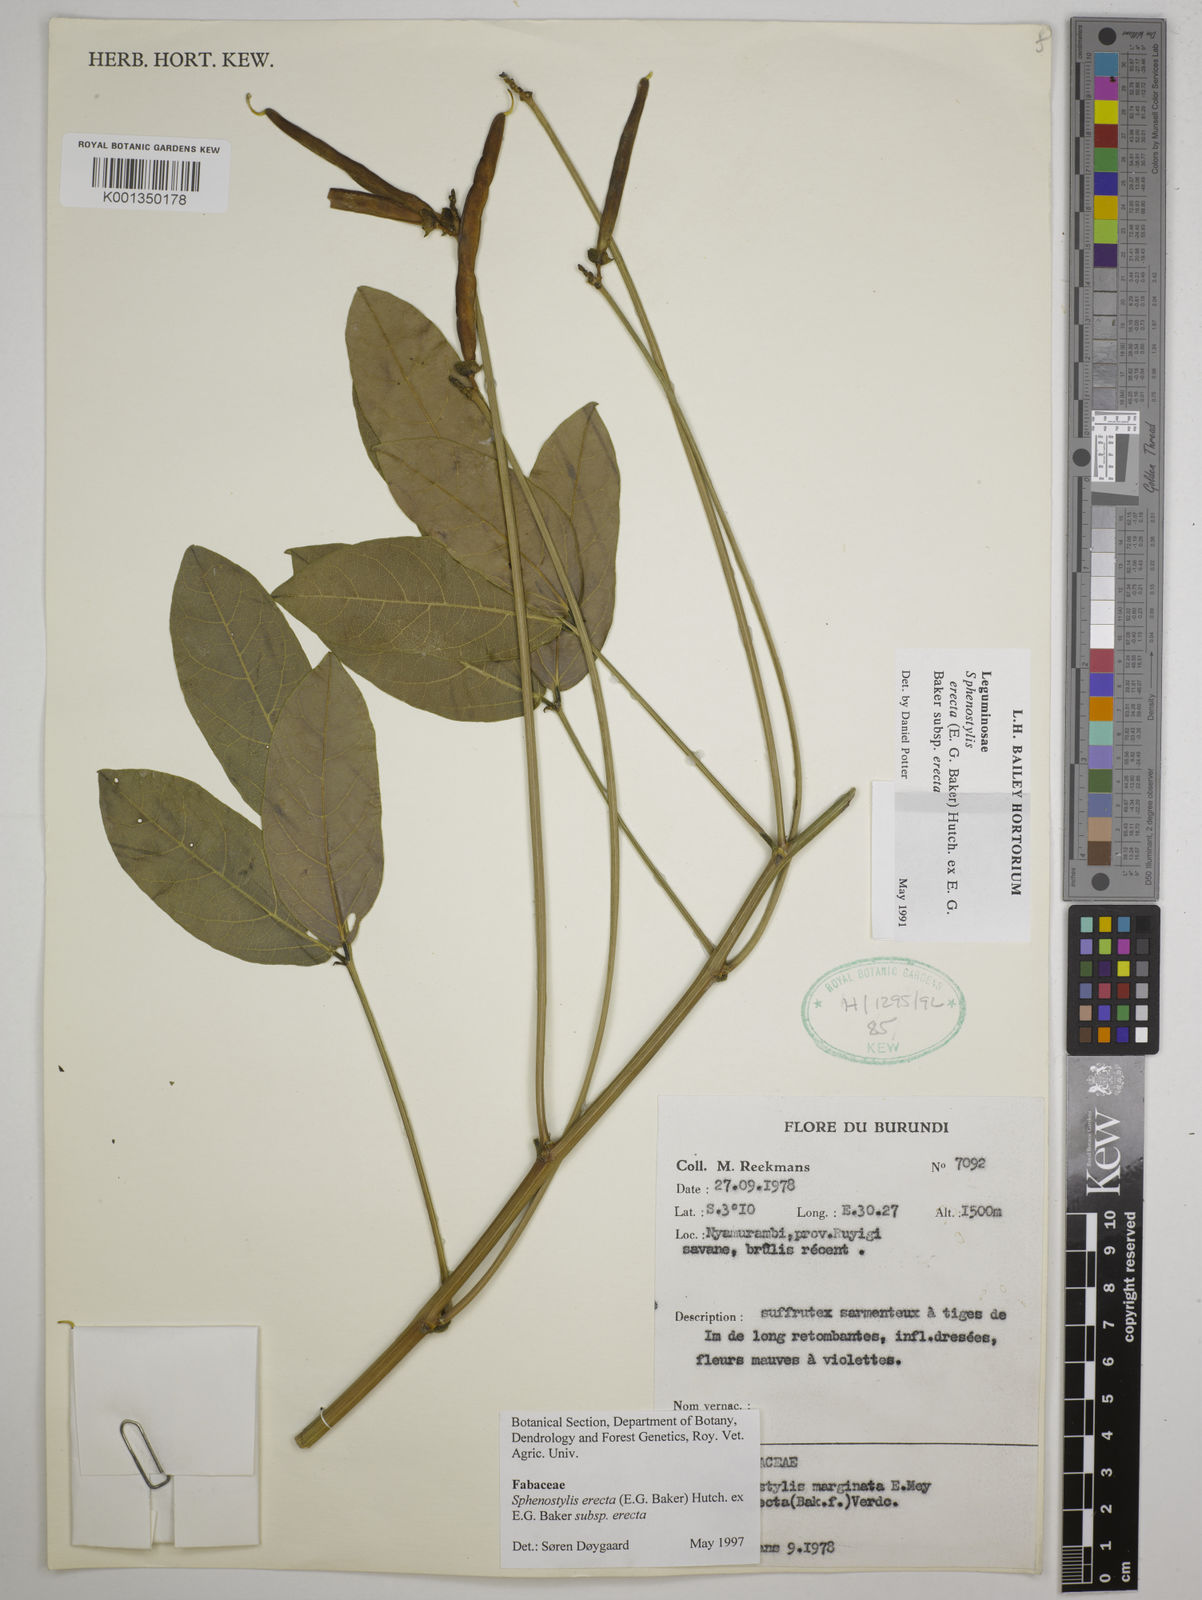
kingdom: Plantae
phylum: Tracheophyta
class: Magnoliopsida
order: Fabales
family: Fabaceae
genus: Sphenostylis
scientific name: Sphenostylis erecta
